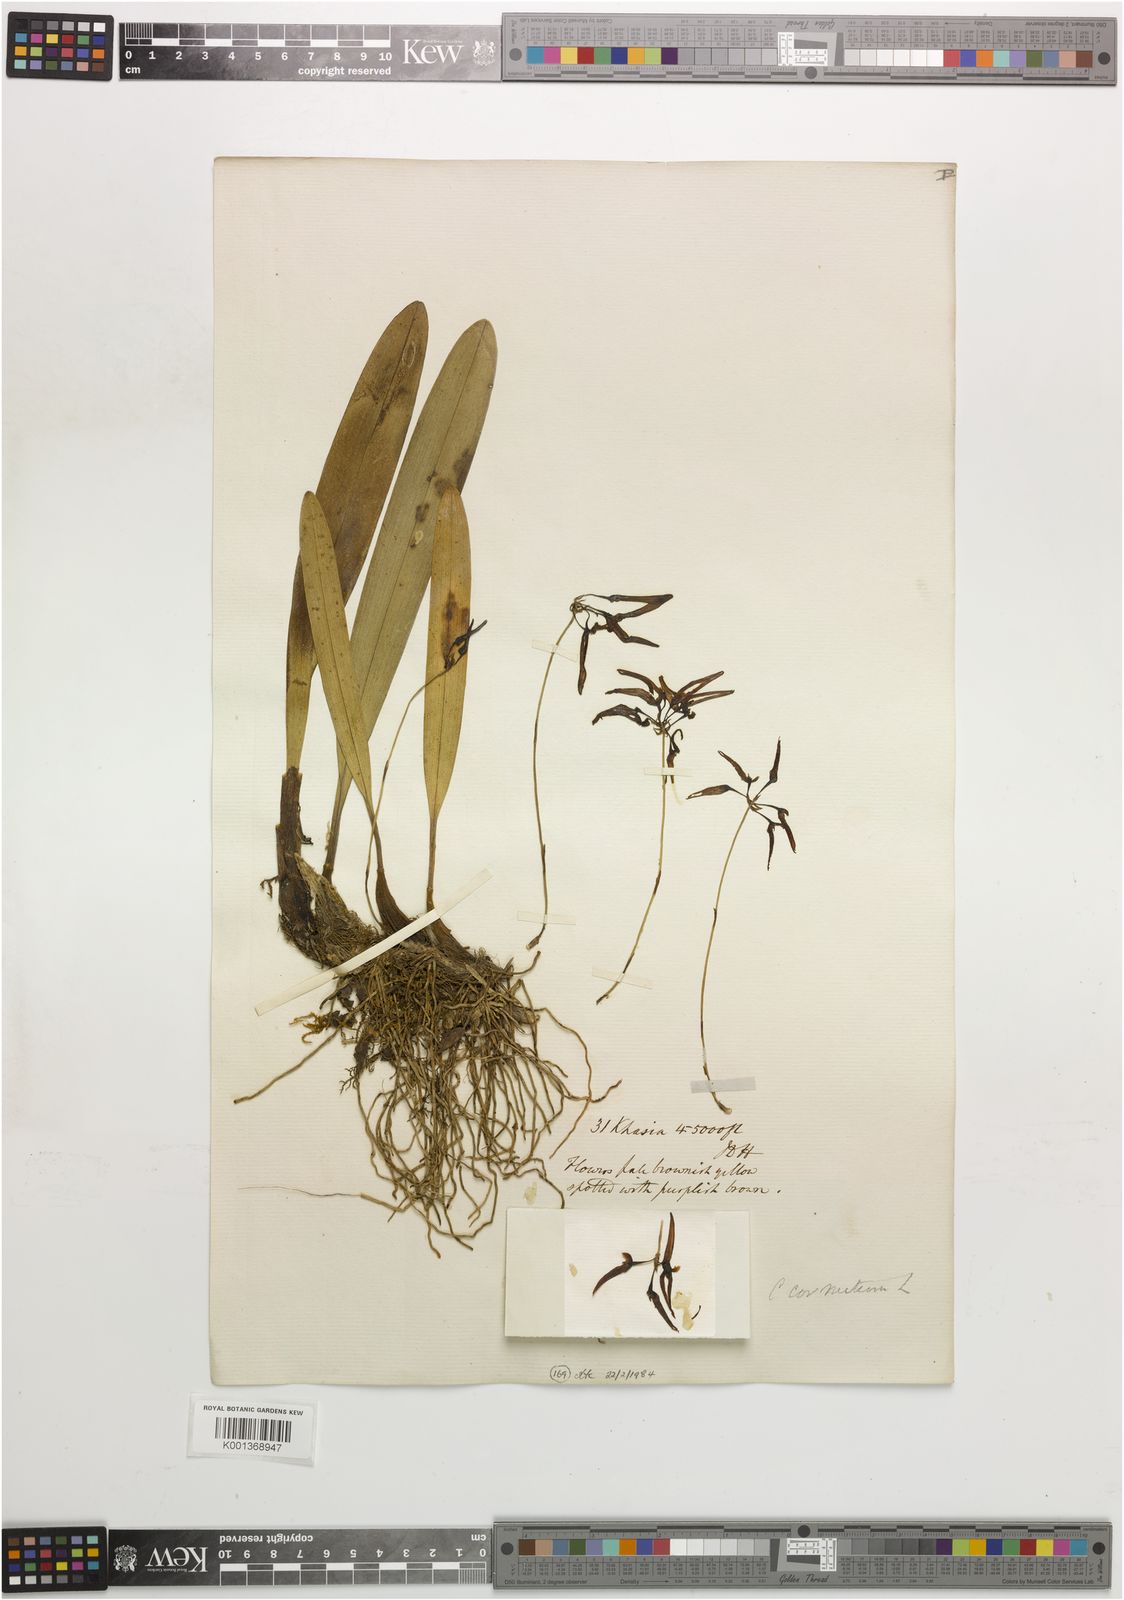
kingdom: Plantae
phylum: Tracheophyta
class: Liliopsida
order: Asparagales
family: Orchidaceae
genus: Bulbophyllum
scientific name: Bulbophyllum helenae
